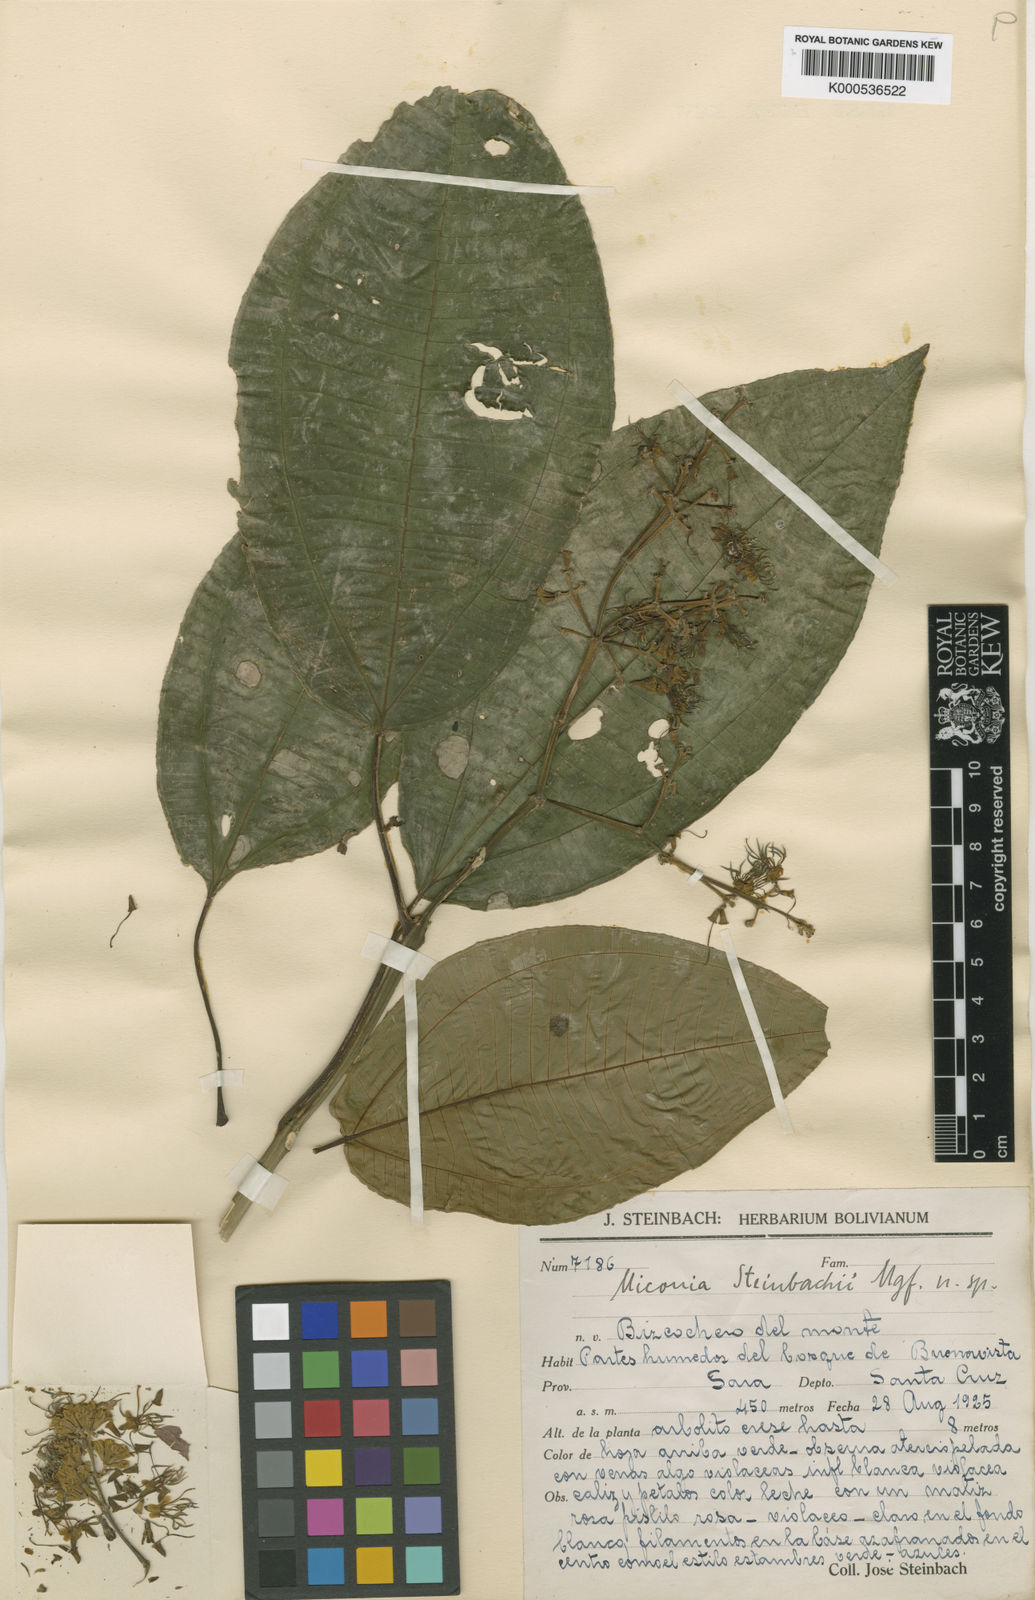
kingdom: Plantae
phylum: Tracheophyta
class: Magnoliopsida
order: Myrtales
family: Melastomataceae
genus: Miconia
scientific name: Miconia steinbachii
